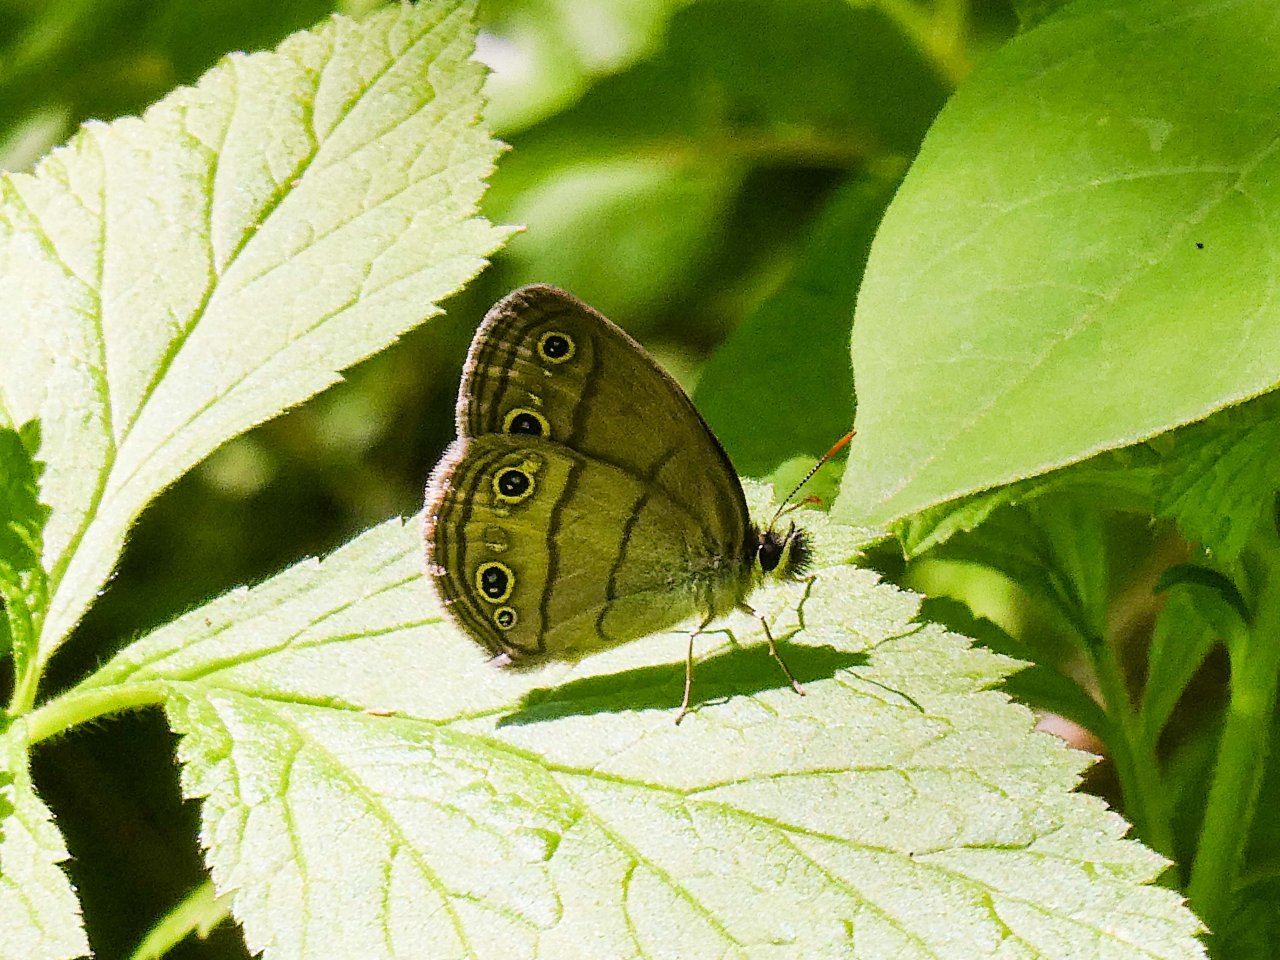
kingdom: Animalia
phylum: Arthropoda
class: Insecta
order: Lepidoptera
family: Nymphalidae
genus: Euptychia
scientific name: Euptychia cymela
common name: Little Wood Satyr
